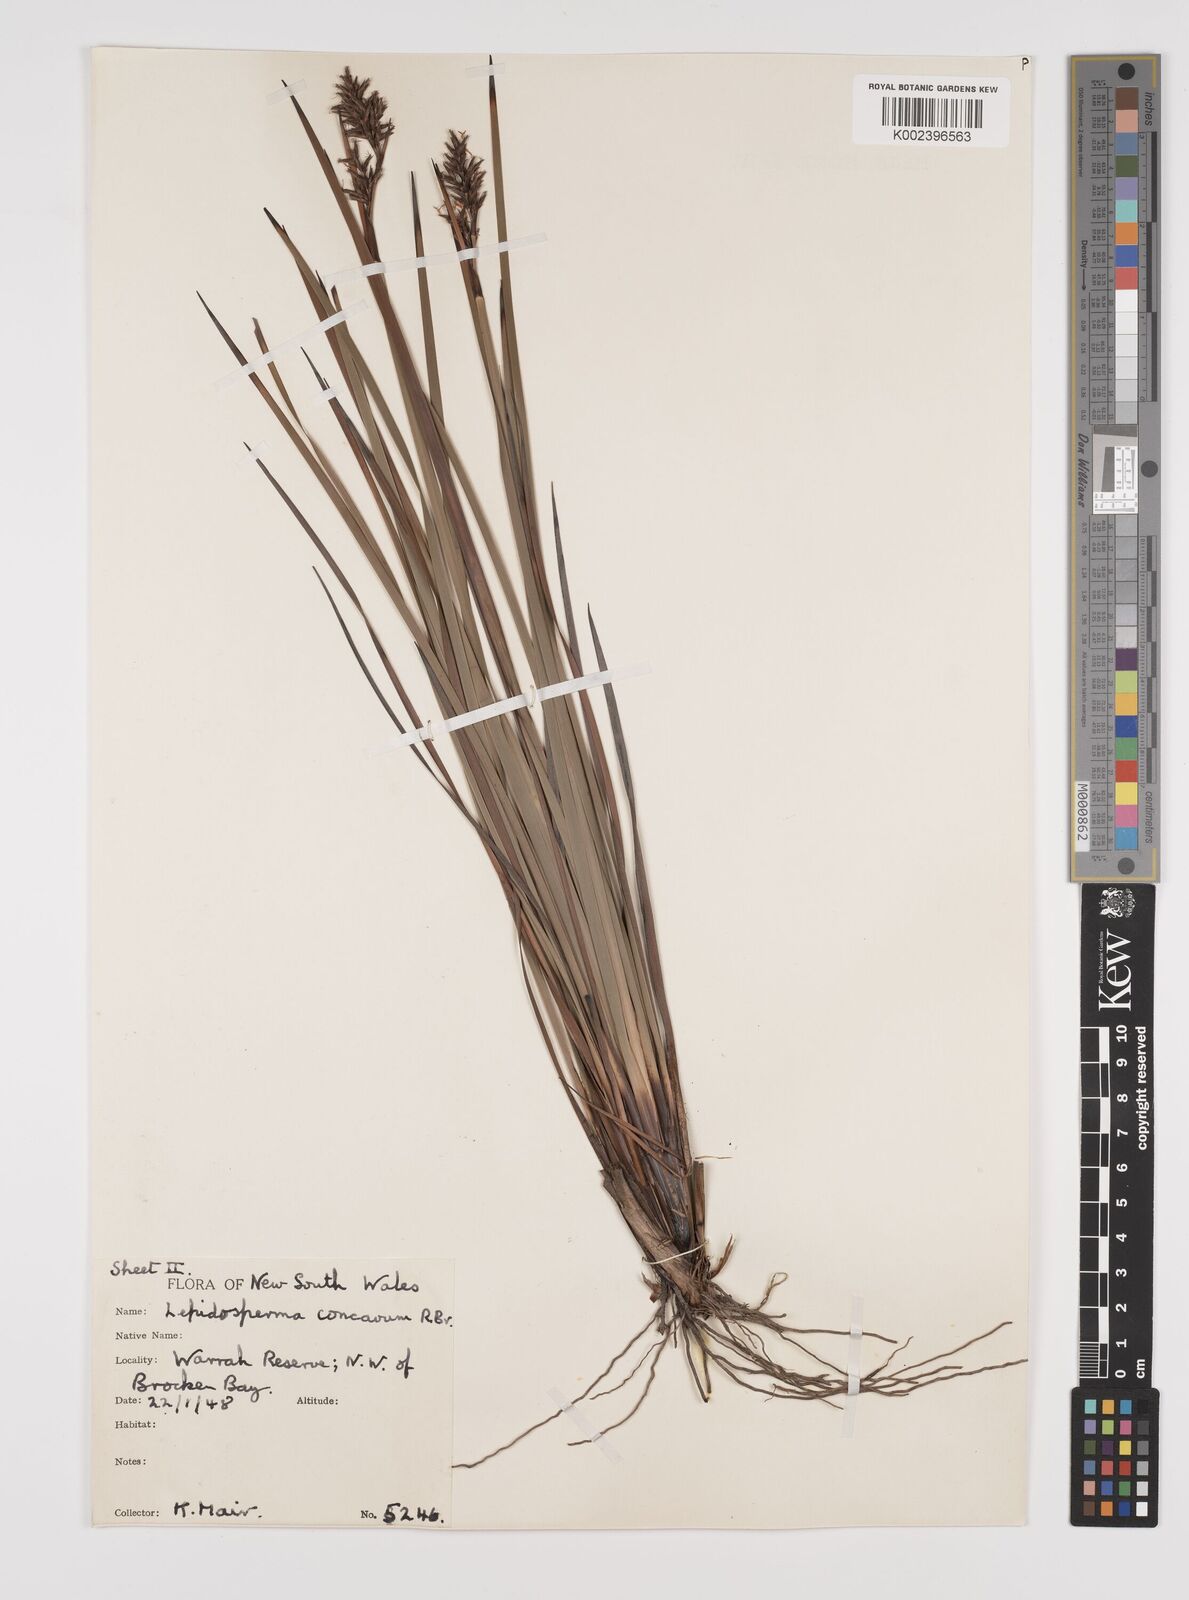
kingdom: Plantae
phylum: Tracheophyta
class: Liliopsida
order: Poales
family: Cyperaceae
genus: Lepidosperma
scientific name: Lepidosperma concavum
